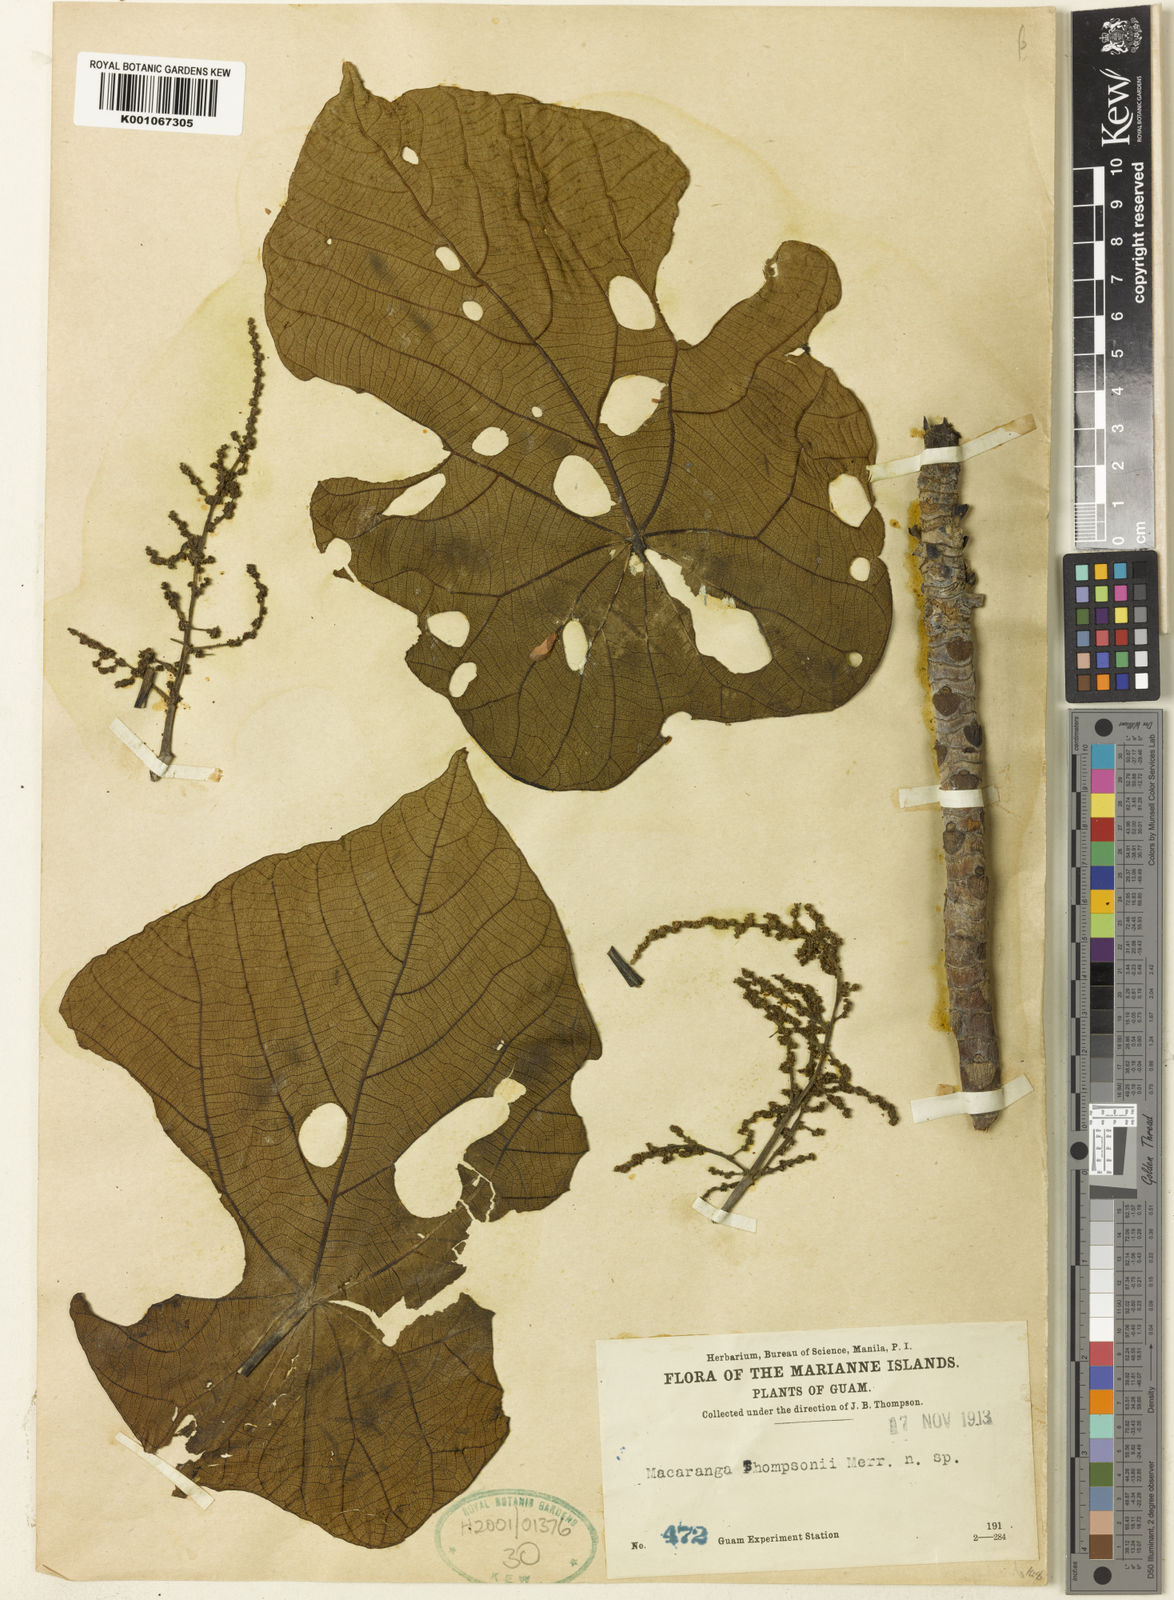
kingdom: Plantae
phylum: Tracheophyta
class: Magnoliopsida
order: Malpighiales
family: Euphorbiaceae
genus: Macaranga
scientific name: Macaranga thompsonii
